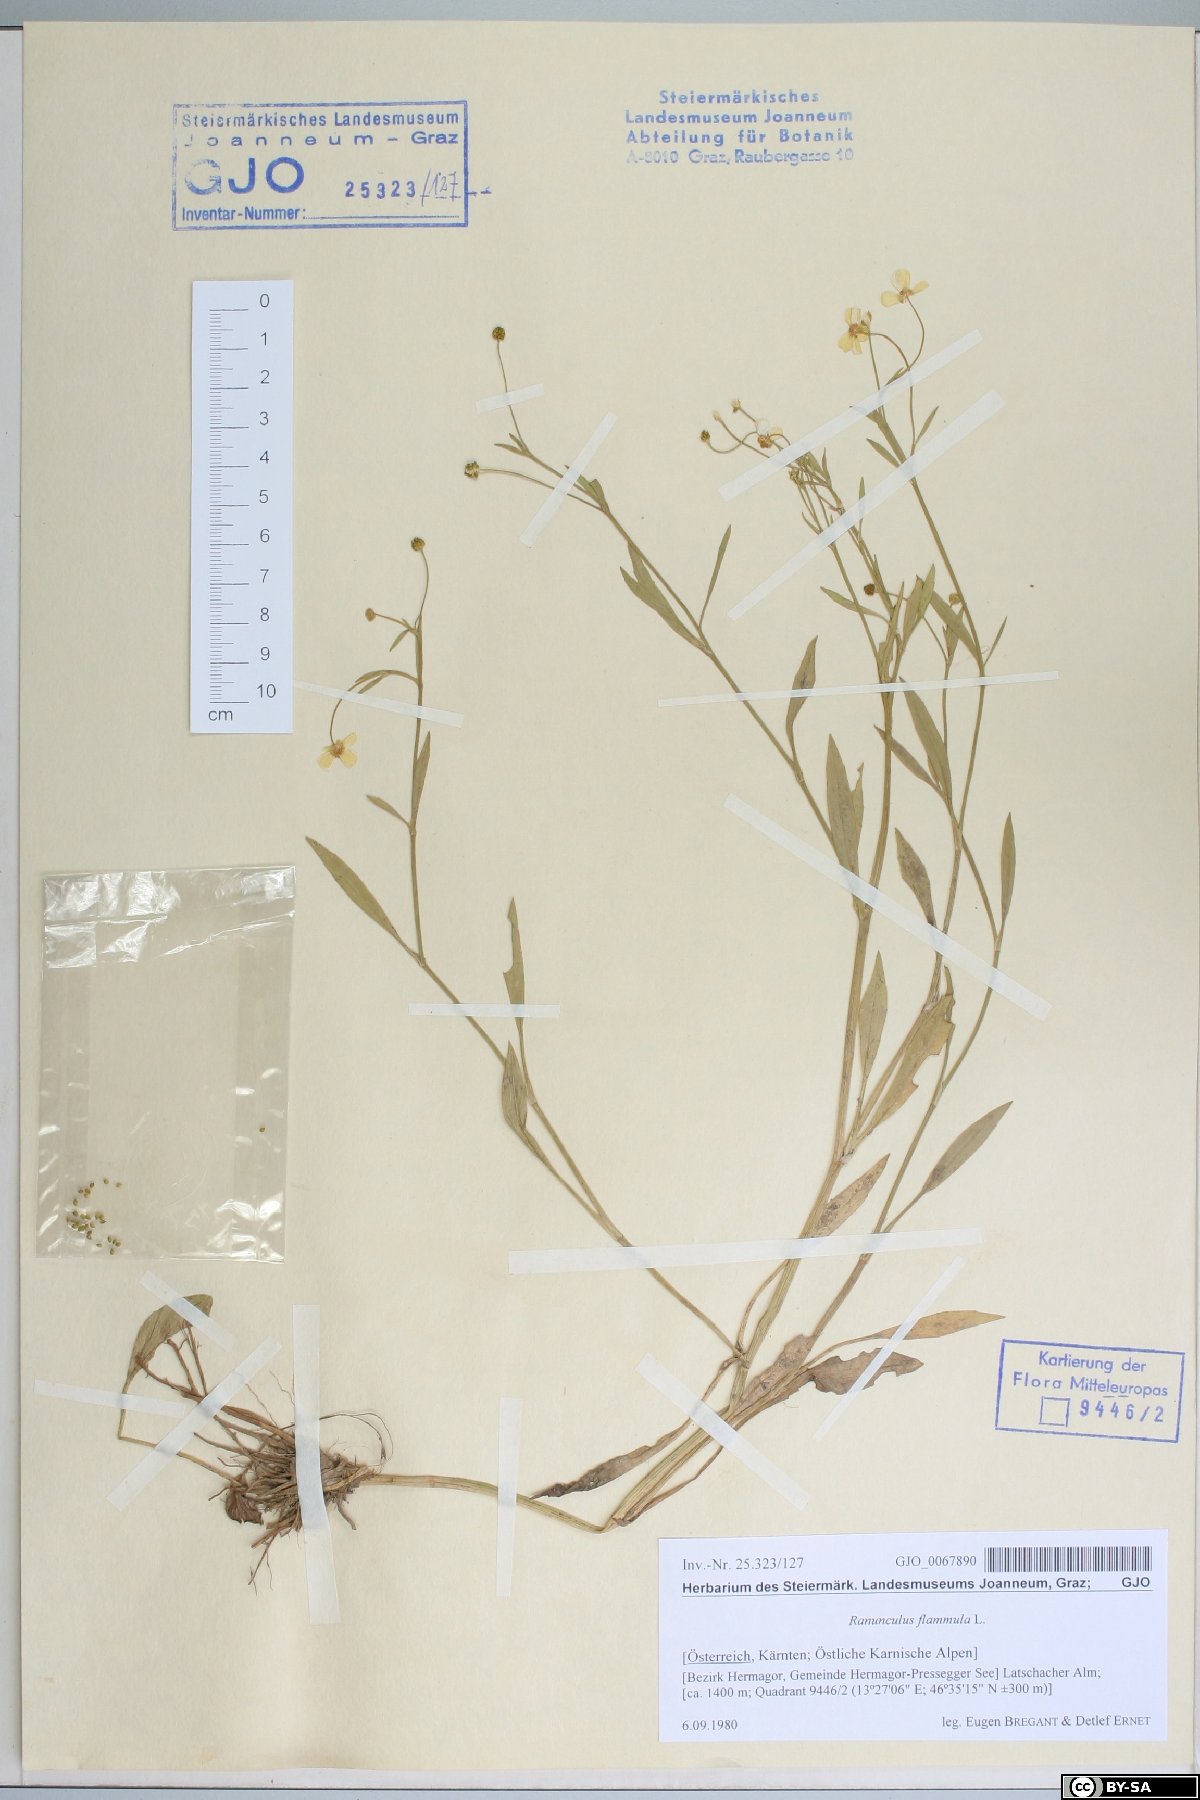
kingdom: Plantae
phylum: Tracheophyta
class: Magnoliopsida
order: Ranunculales
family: Ranunculaceae
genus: Ranunculus
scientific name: Ranunculus flammula
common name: Lesser spearwort
